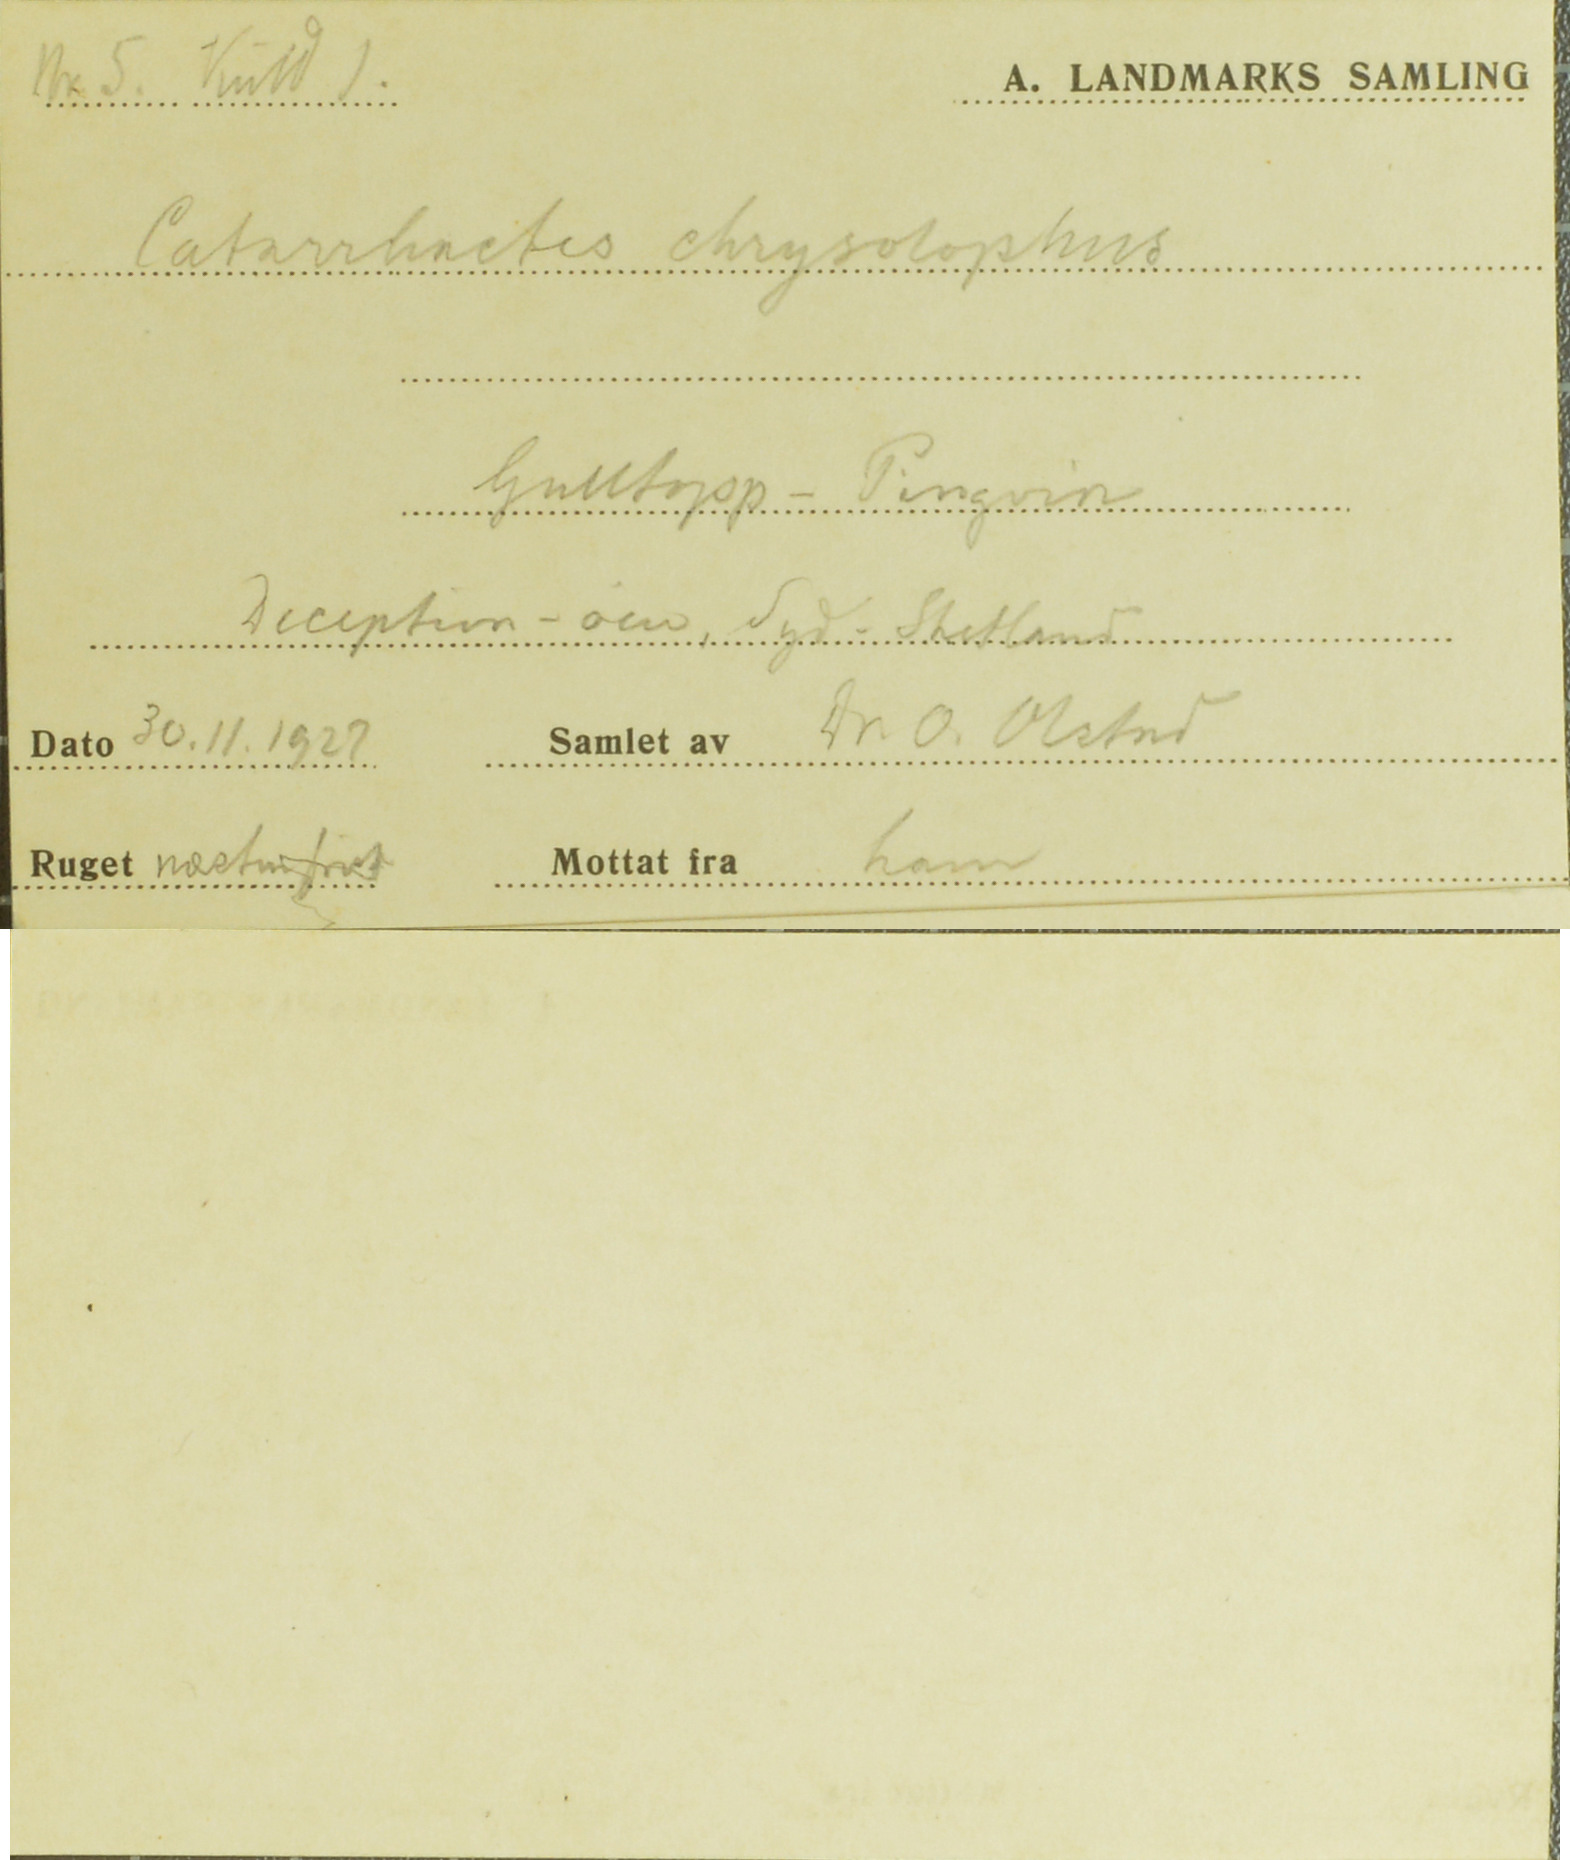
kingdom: Animalia
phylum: Chordata
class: Aves
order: Sphenisciformes
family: Spheniscidae
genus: Eudyptes
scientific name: Eudyptes chrysolophus
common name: Macaroni penguin
